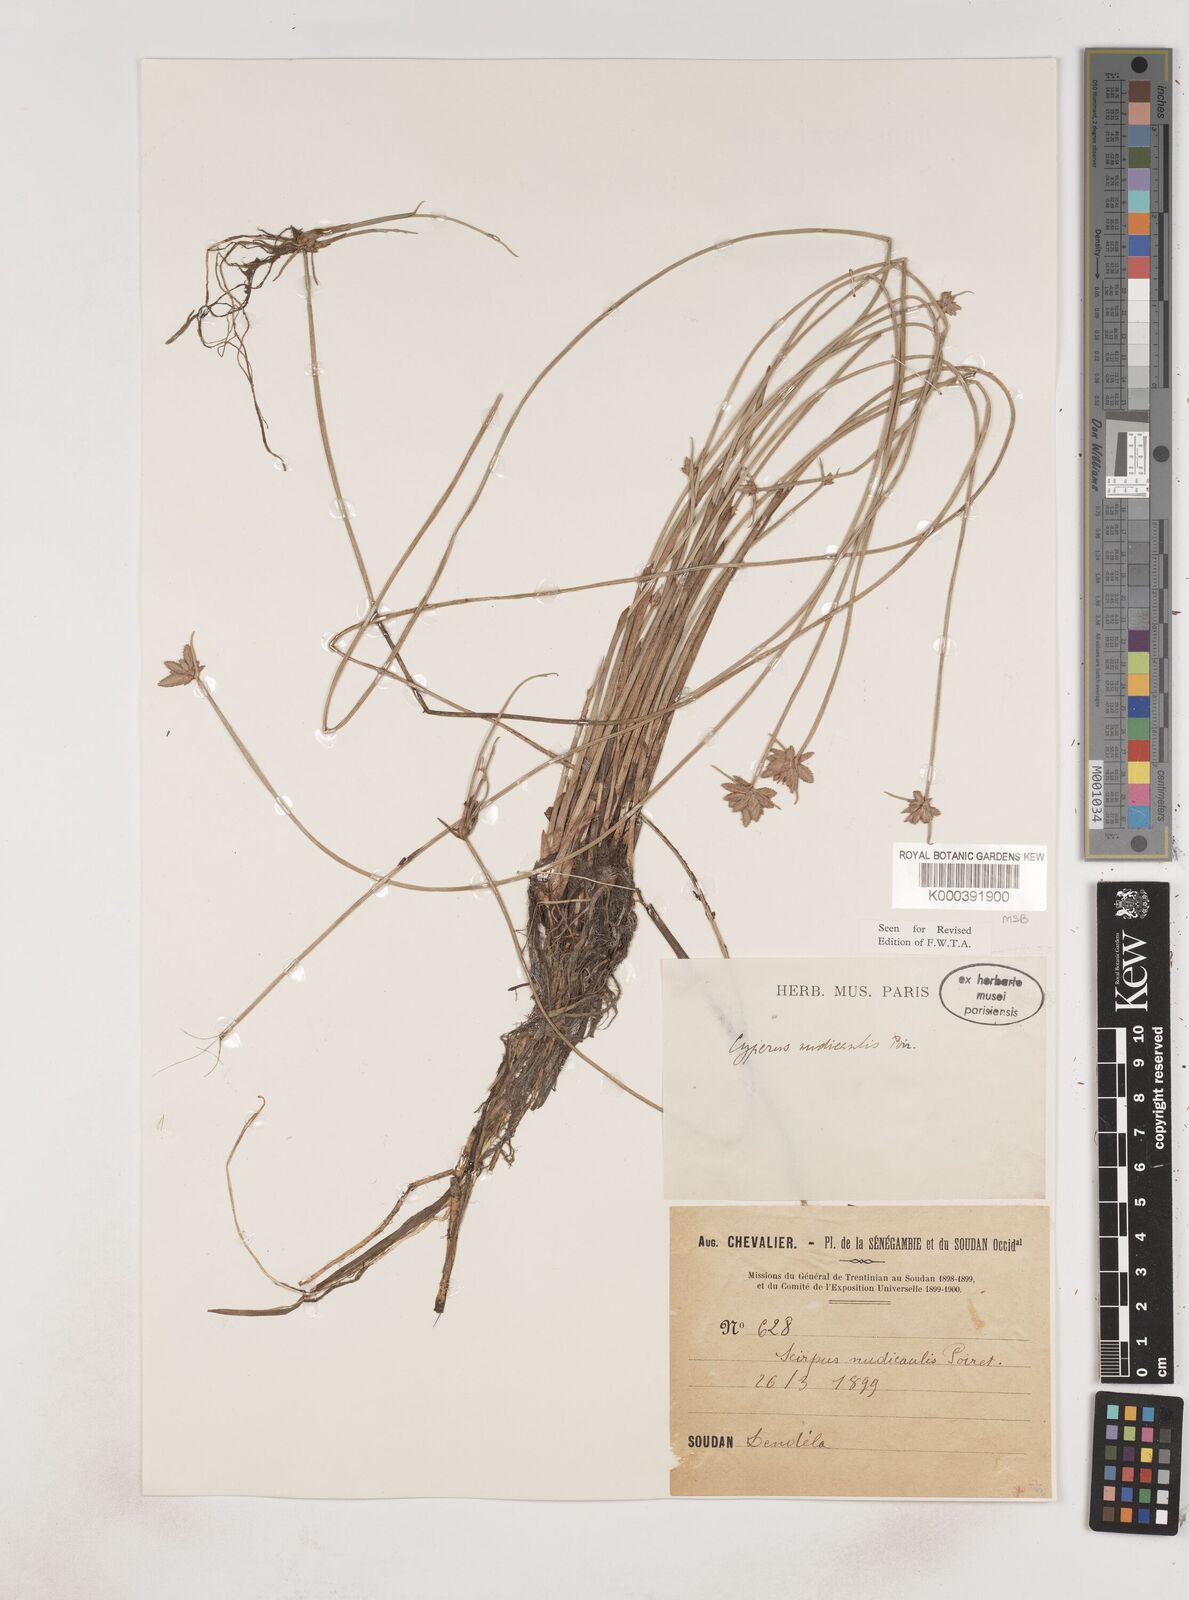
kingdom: Plantae
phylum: Tracheophyta
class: Liliopsida
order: Poales
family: Cyperaceae
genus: Cyperus
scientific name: Cyperus pectinatus
